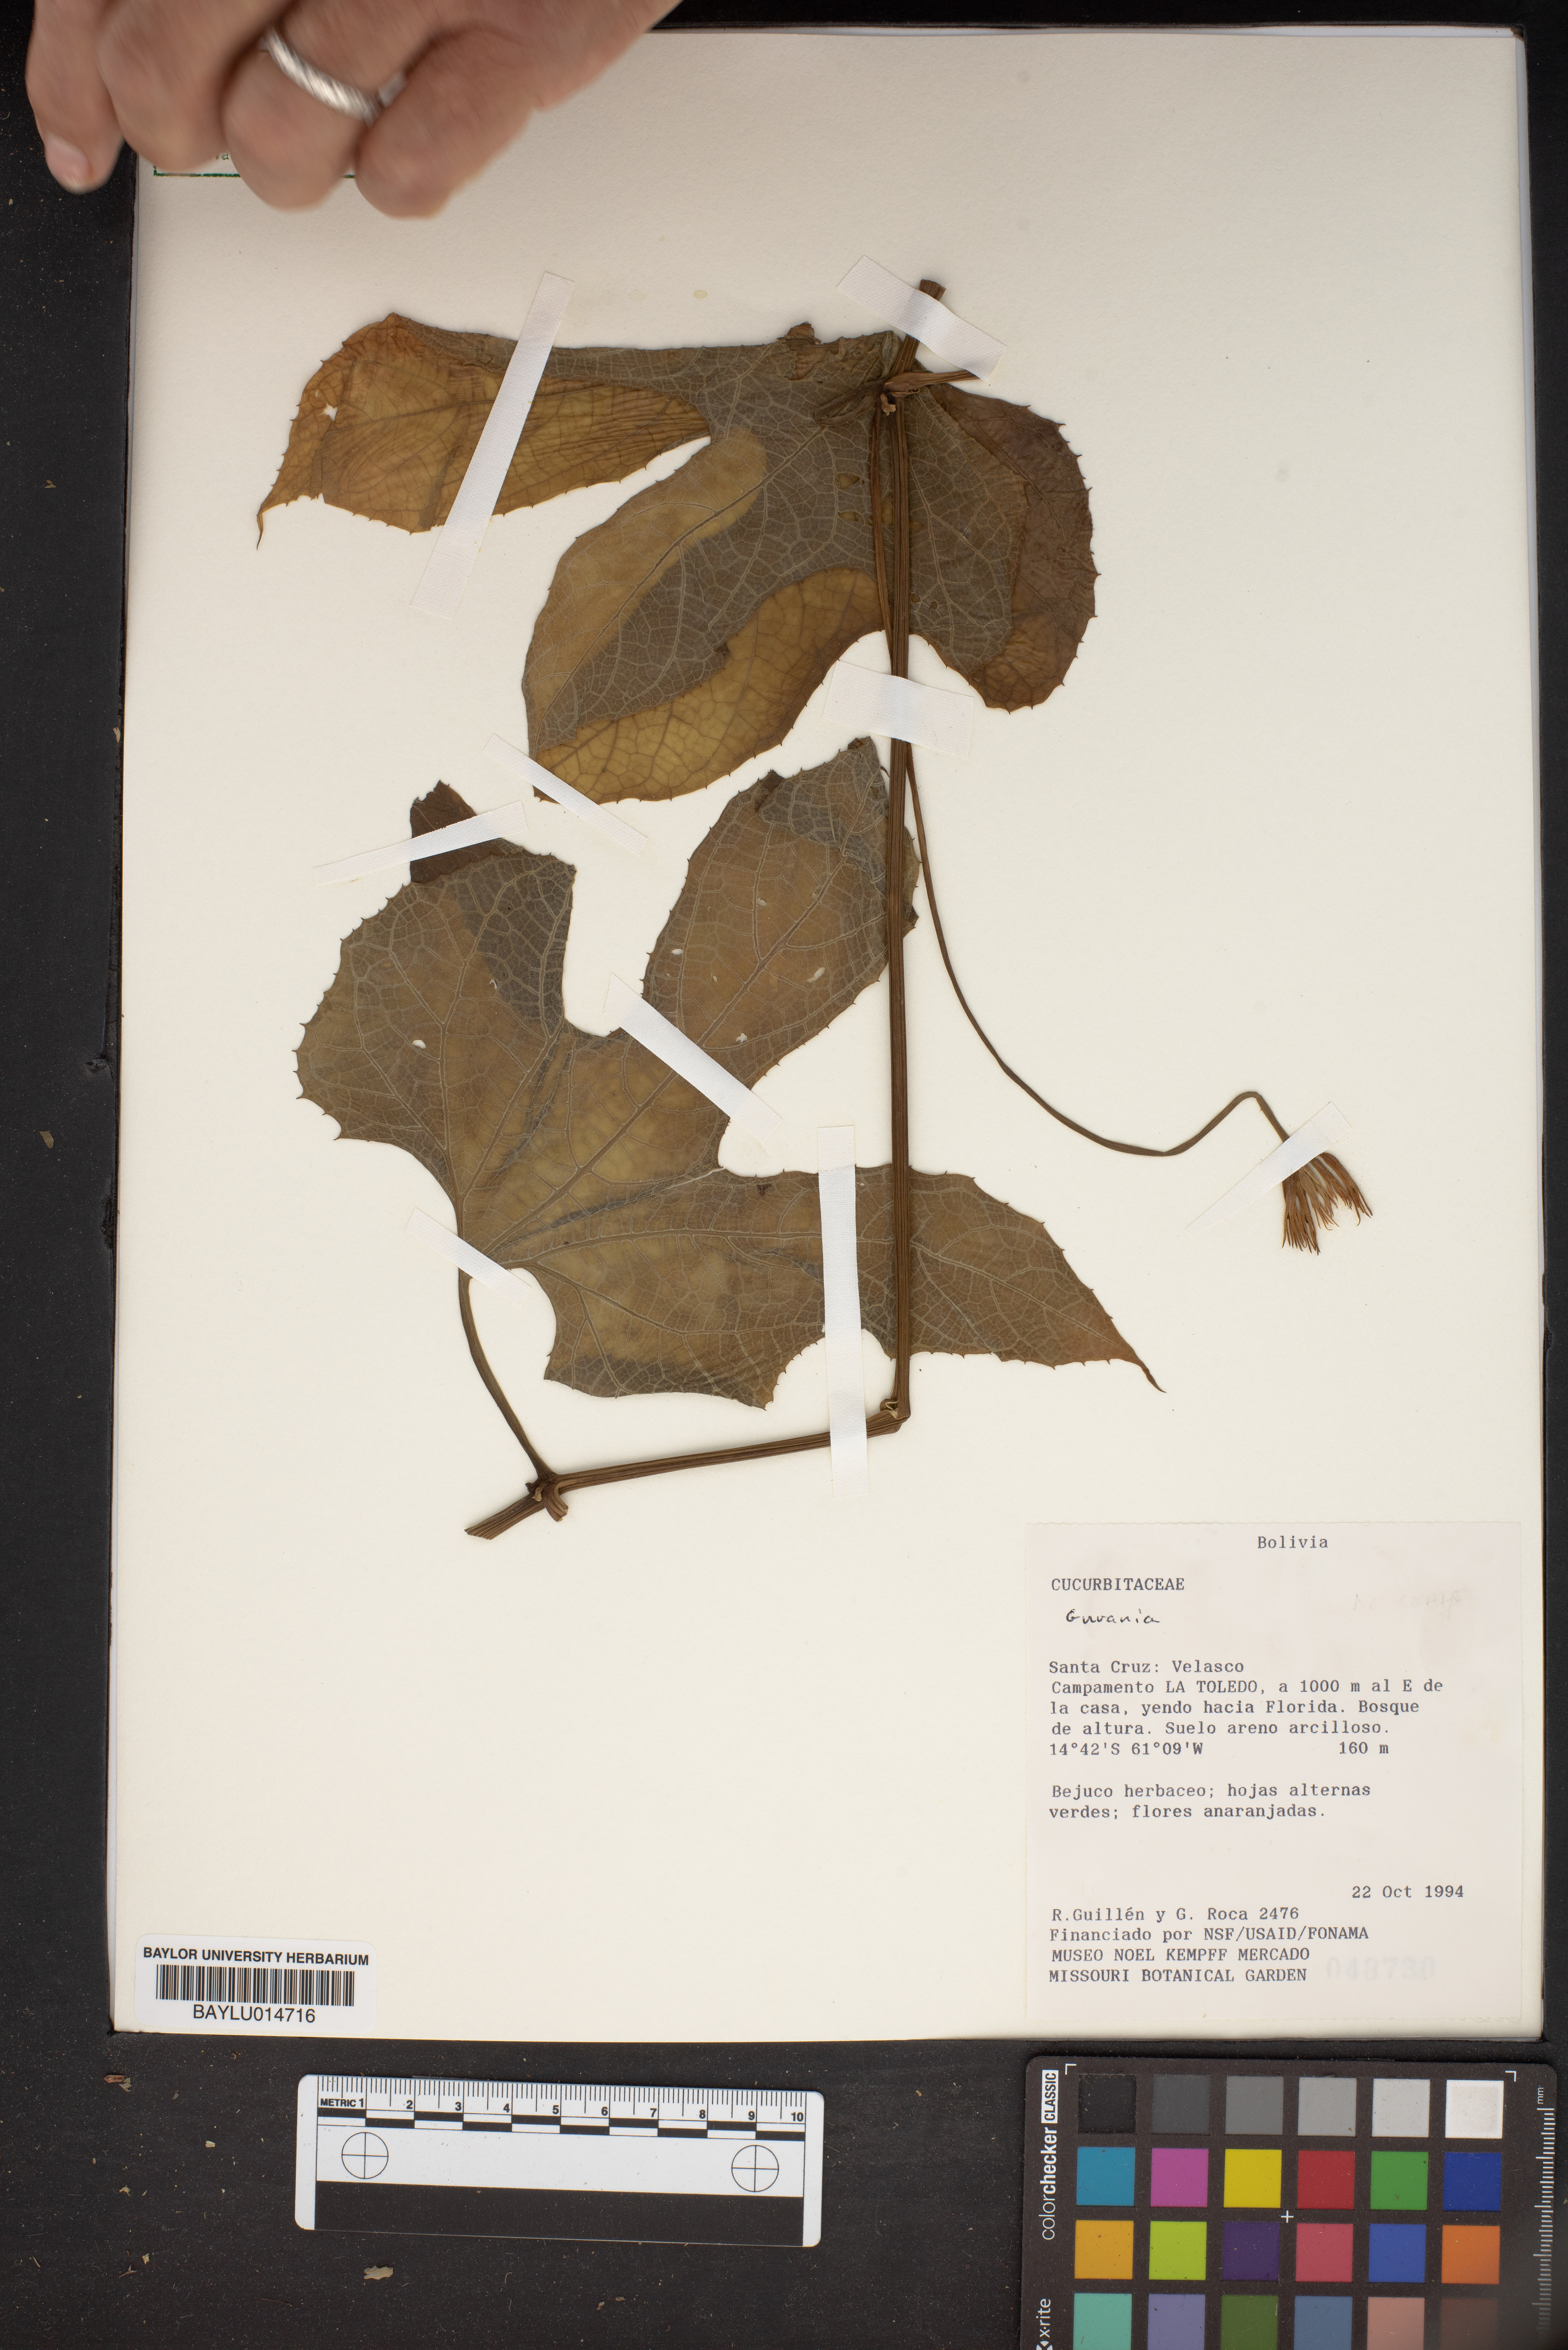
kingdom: Plantae
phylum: Tracheophyta
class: Magnoliopsida
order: Cucurbitales
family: Cucurbitaceae
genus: Gurania
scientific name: Gurania
